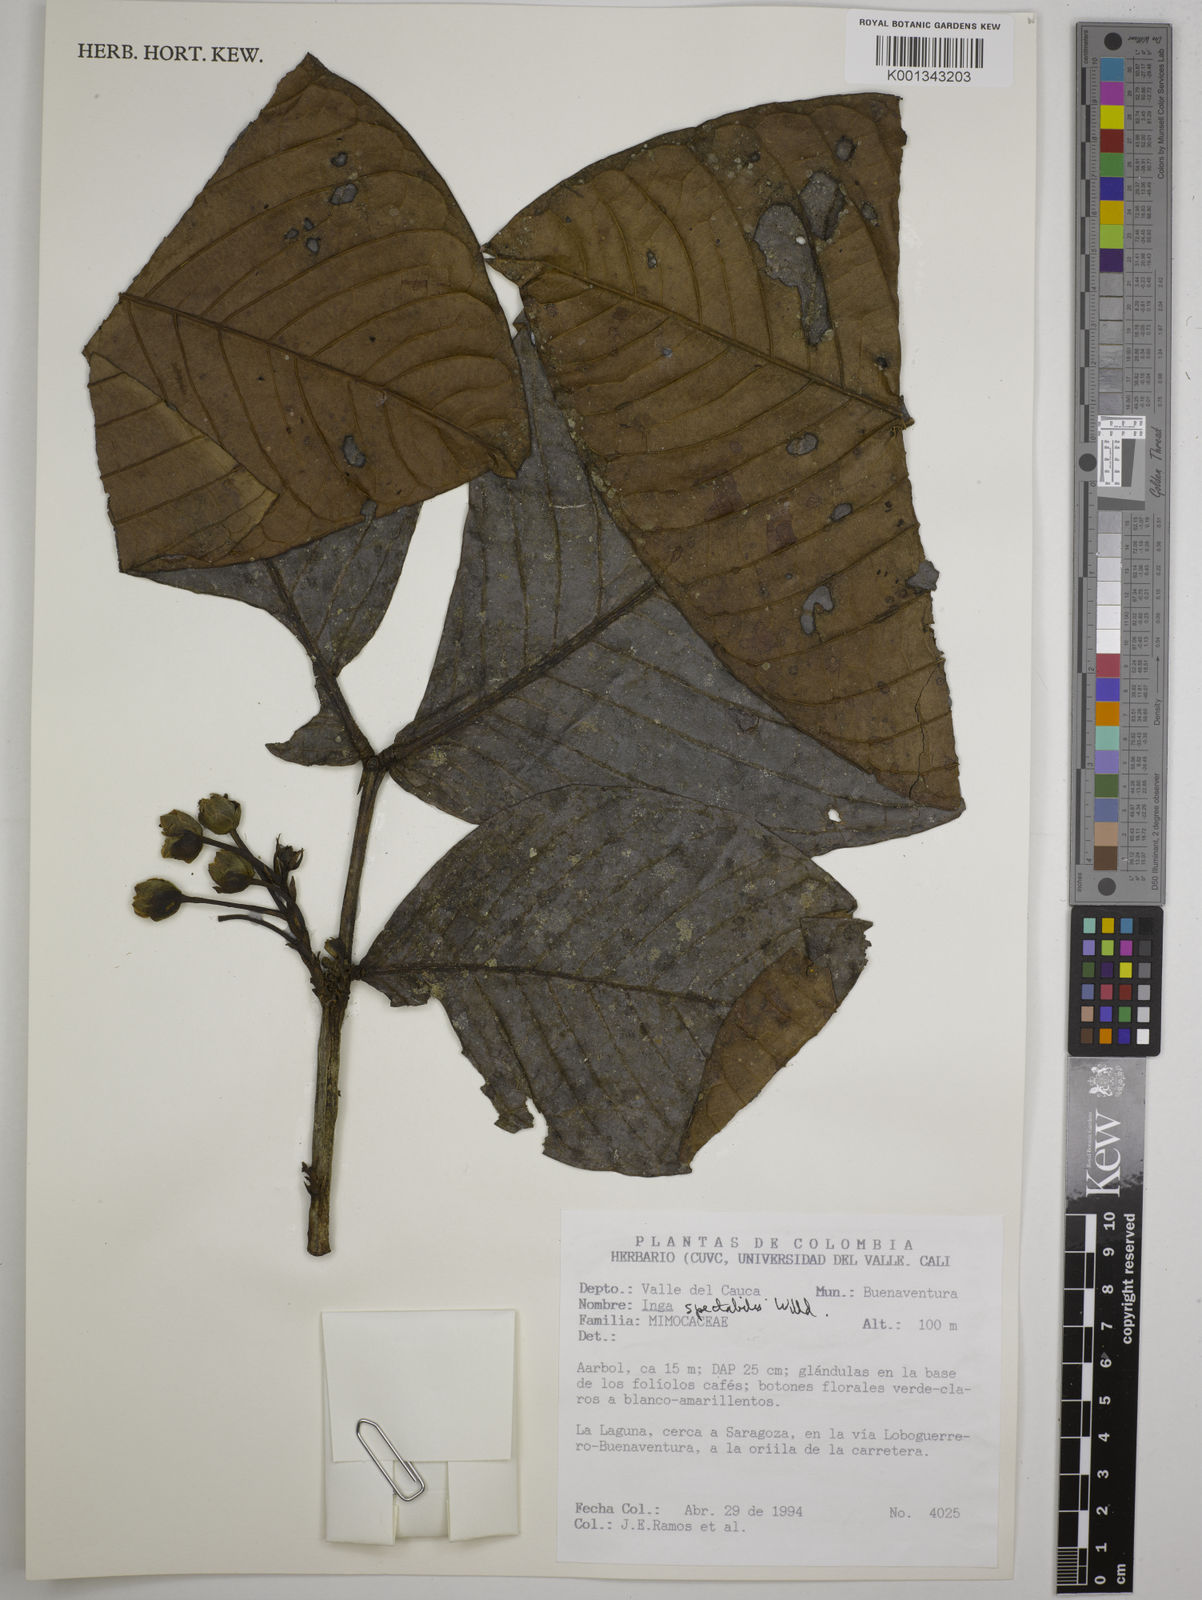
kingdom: Plantae
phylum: Tracheophyta
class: Magnoliopsida
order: Fabales
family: Fabaceae
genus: Inga
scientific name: Inga spectabilis
